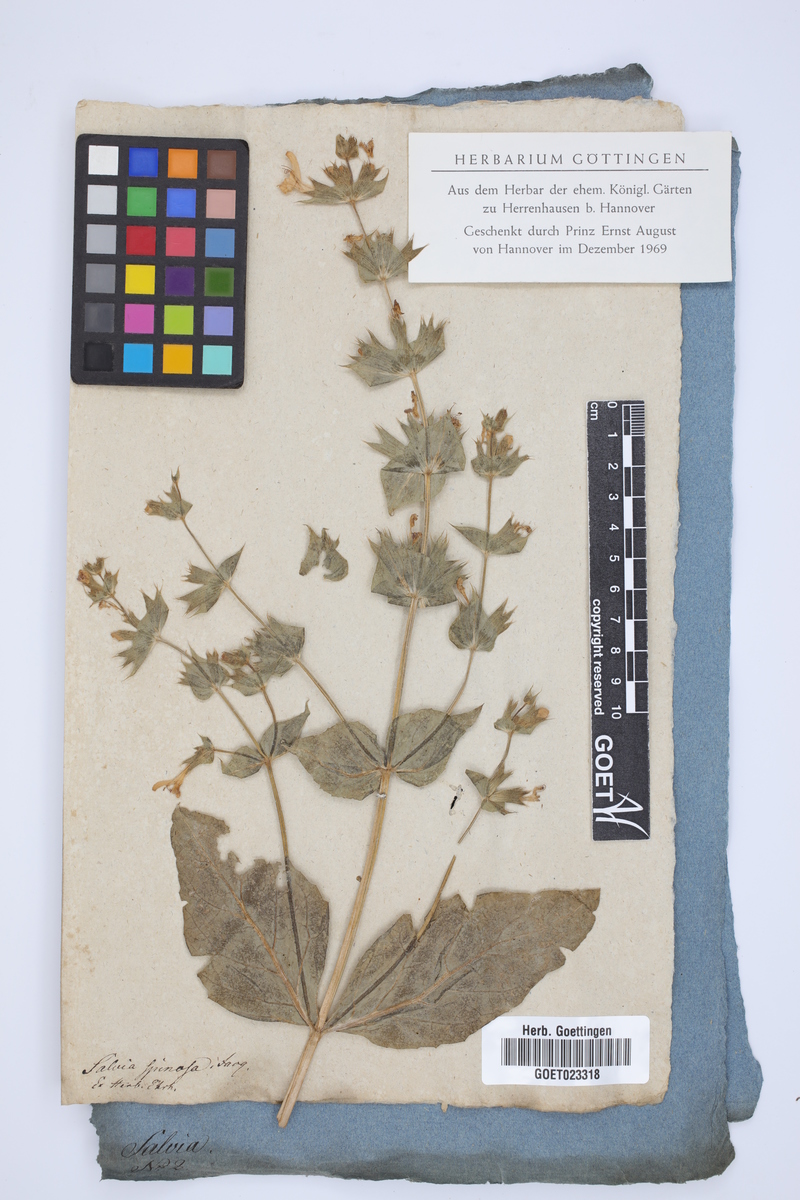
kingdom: Plantae
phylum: Tracheophyta
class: Magnoliopsida
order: Lamiales
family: Lamiaceae
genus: Salvia
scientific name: Salvia spinosa
